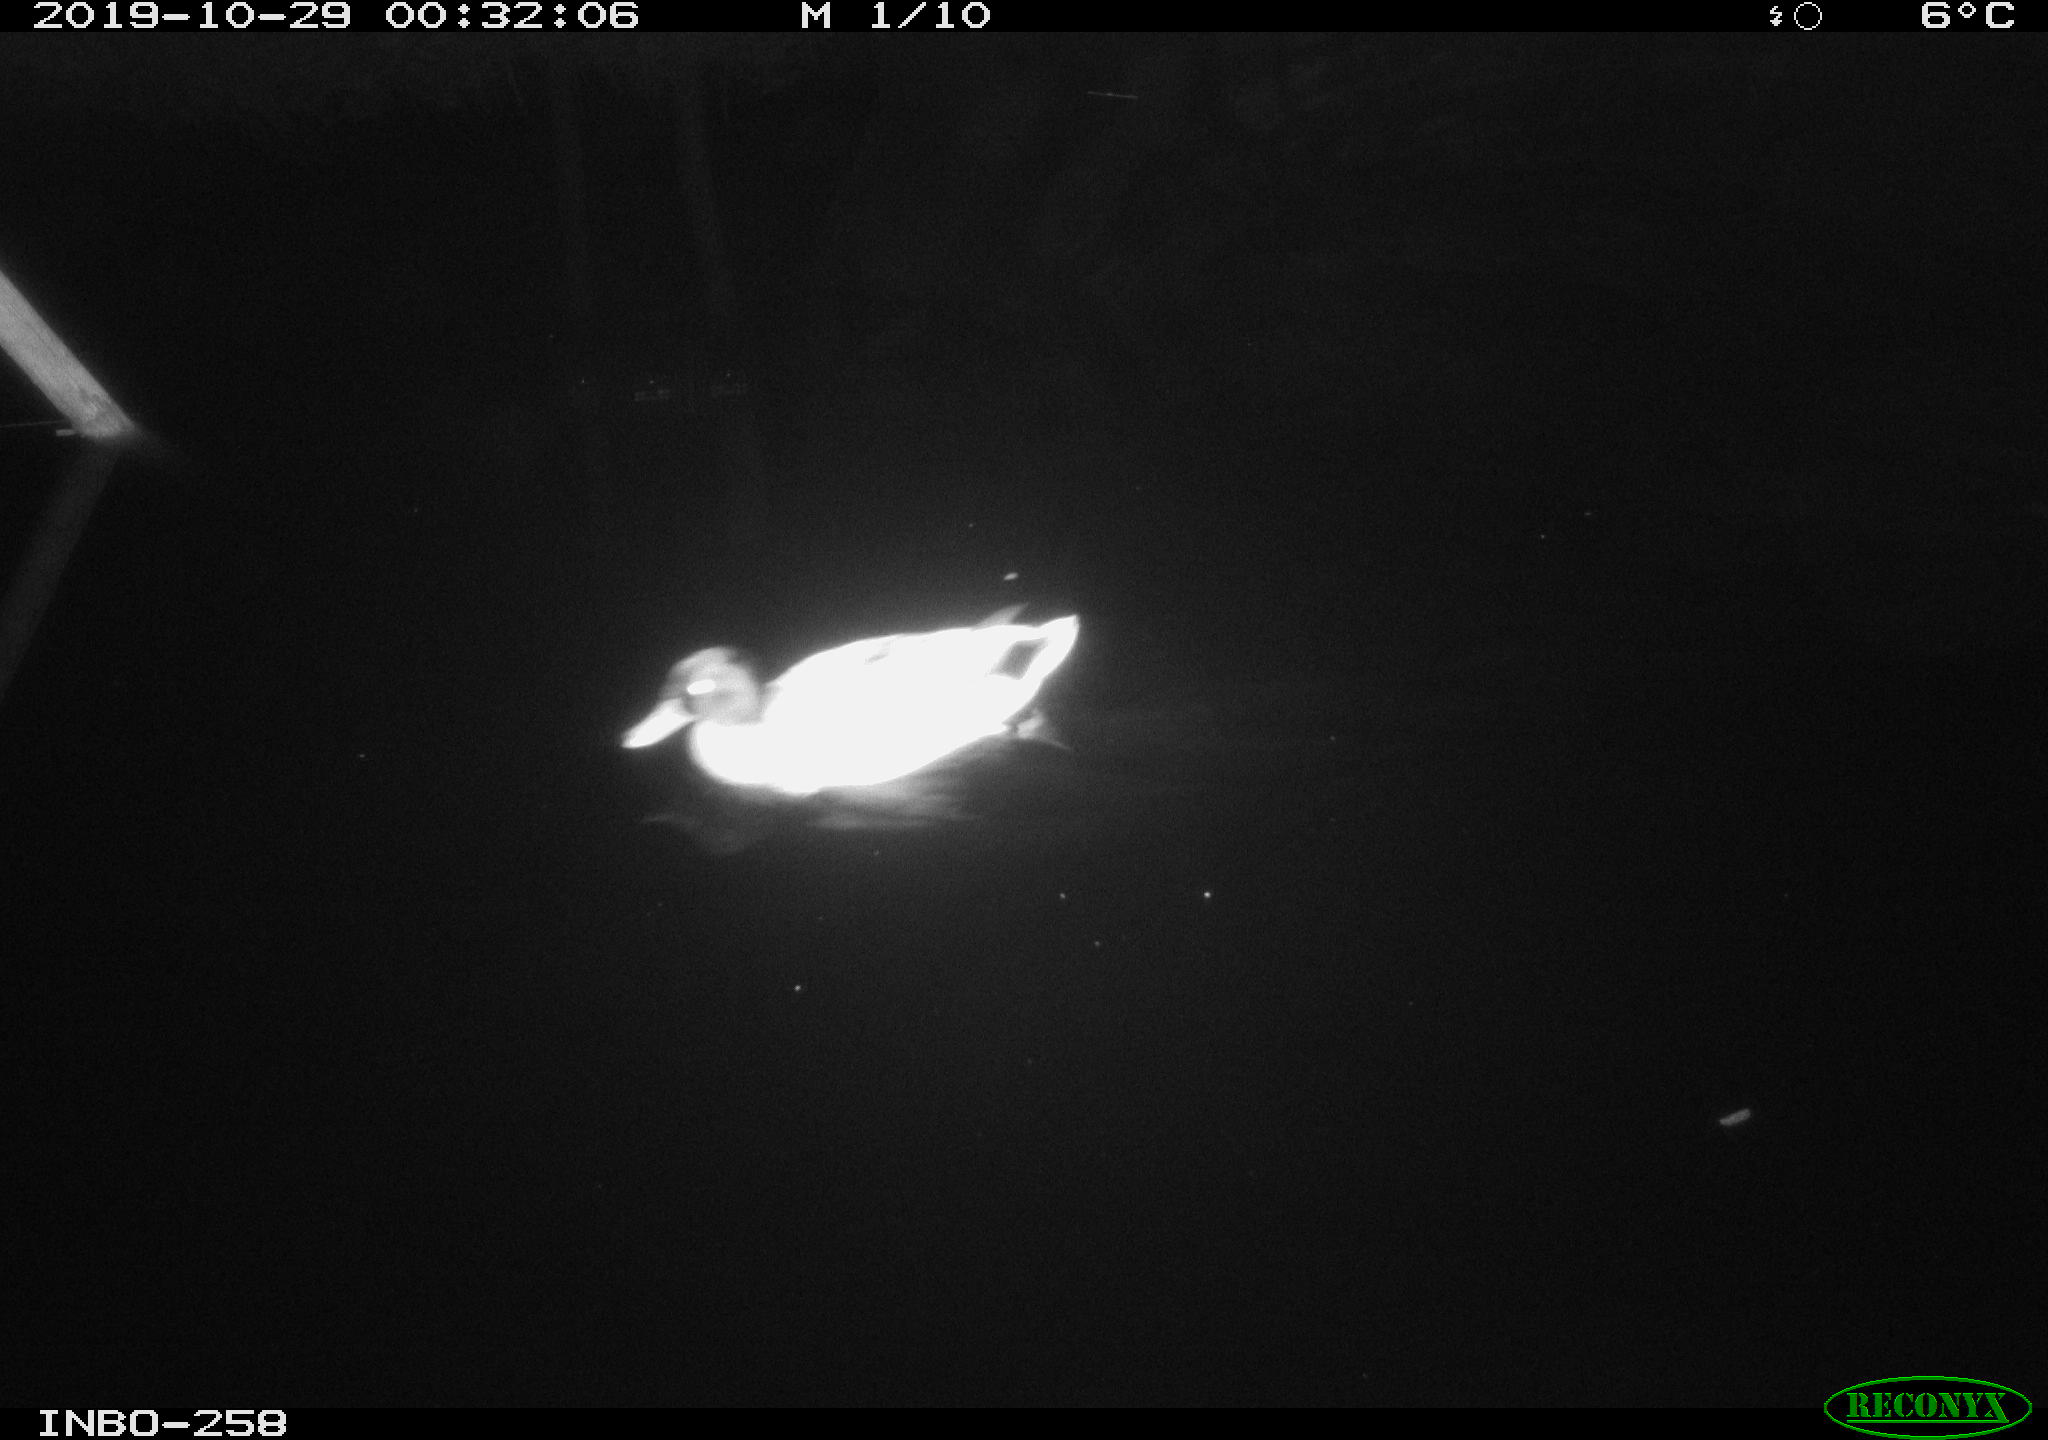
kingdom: Animalia
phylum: Chordata
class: Aves
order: Anseriformes
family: Anatidae
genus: Anas
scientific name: Anas platyrhynchos
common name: Mallard
